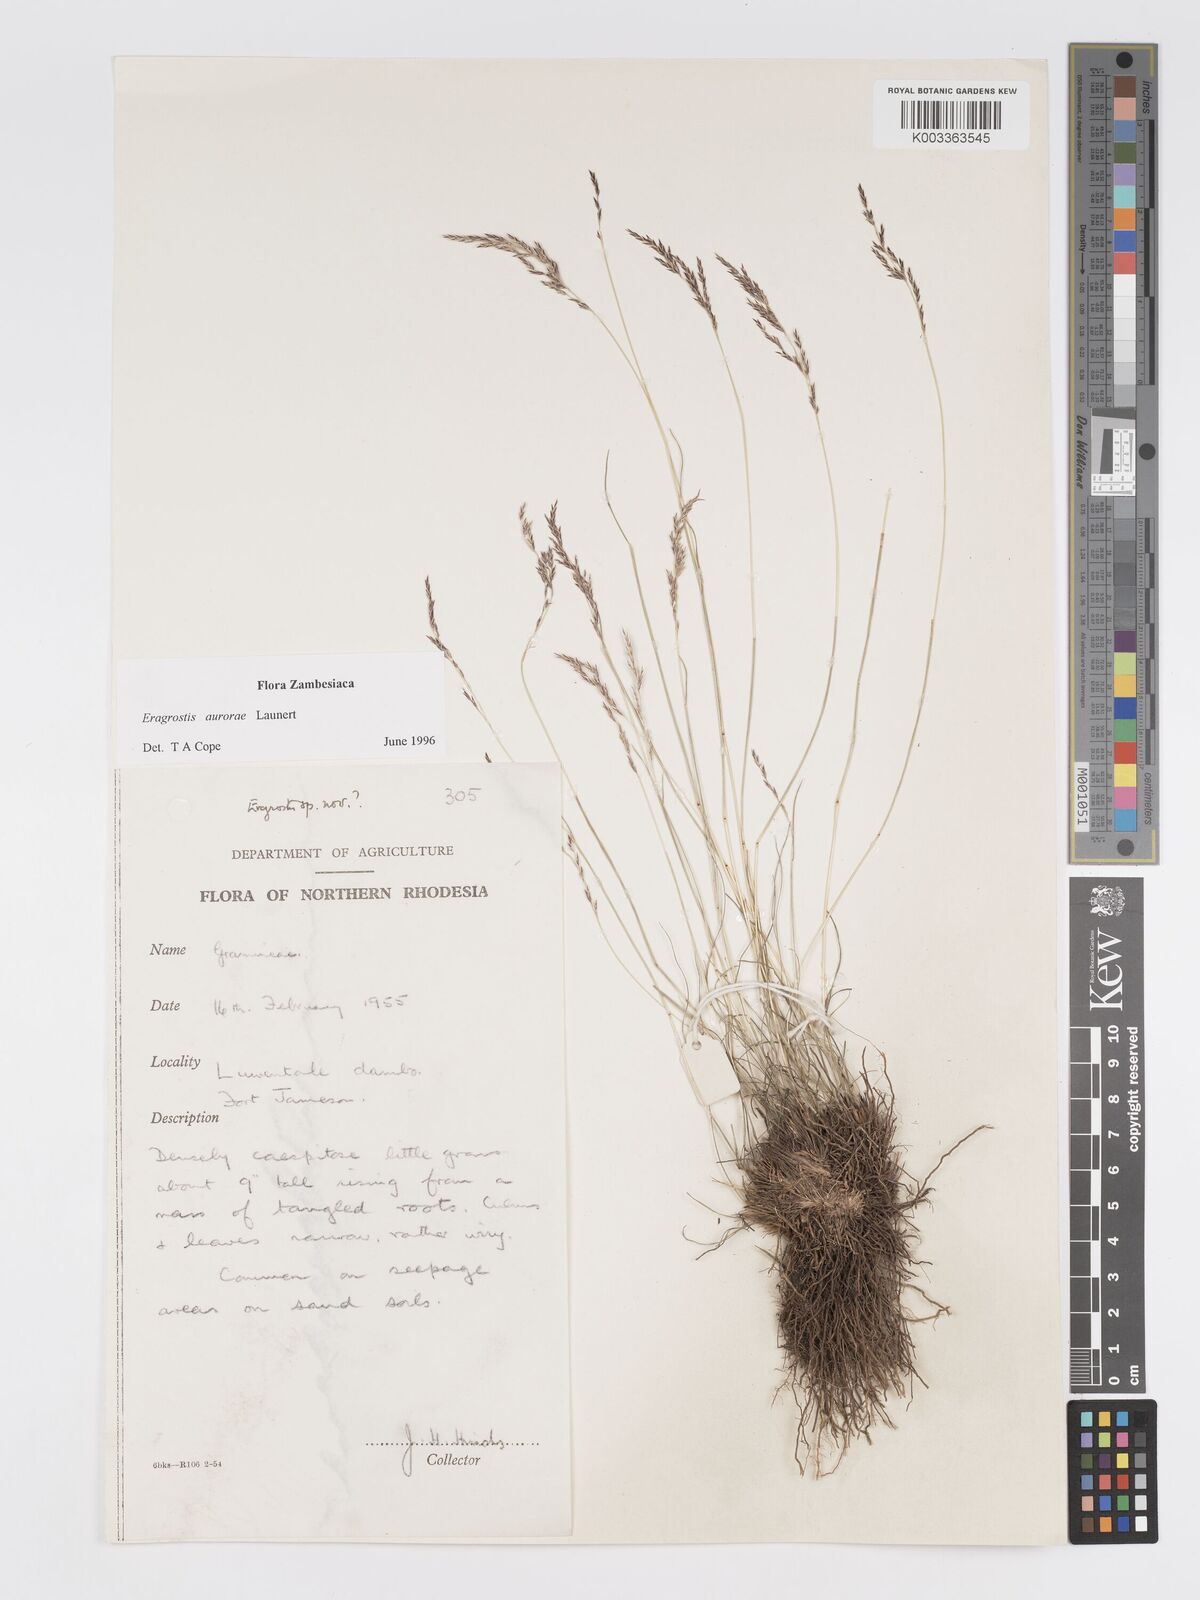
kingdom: Plantae
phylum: Tracheophyta
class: Liliopsida
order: Poales
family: Poaceae
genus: Eragrostis
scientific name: Eragrostis aurorae
